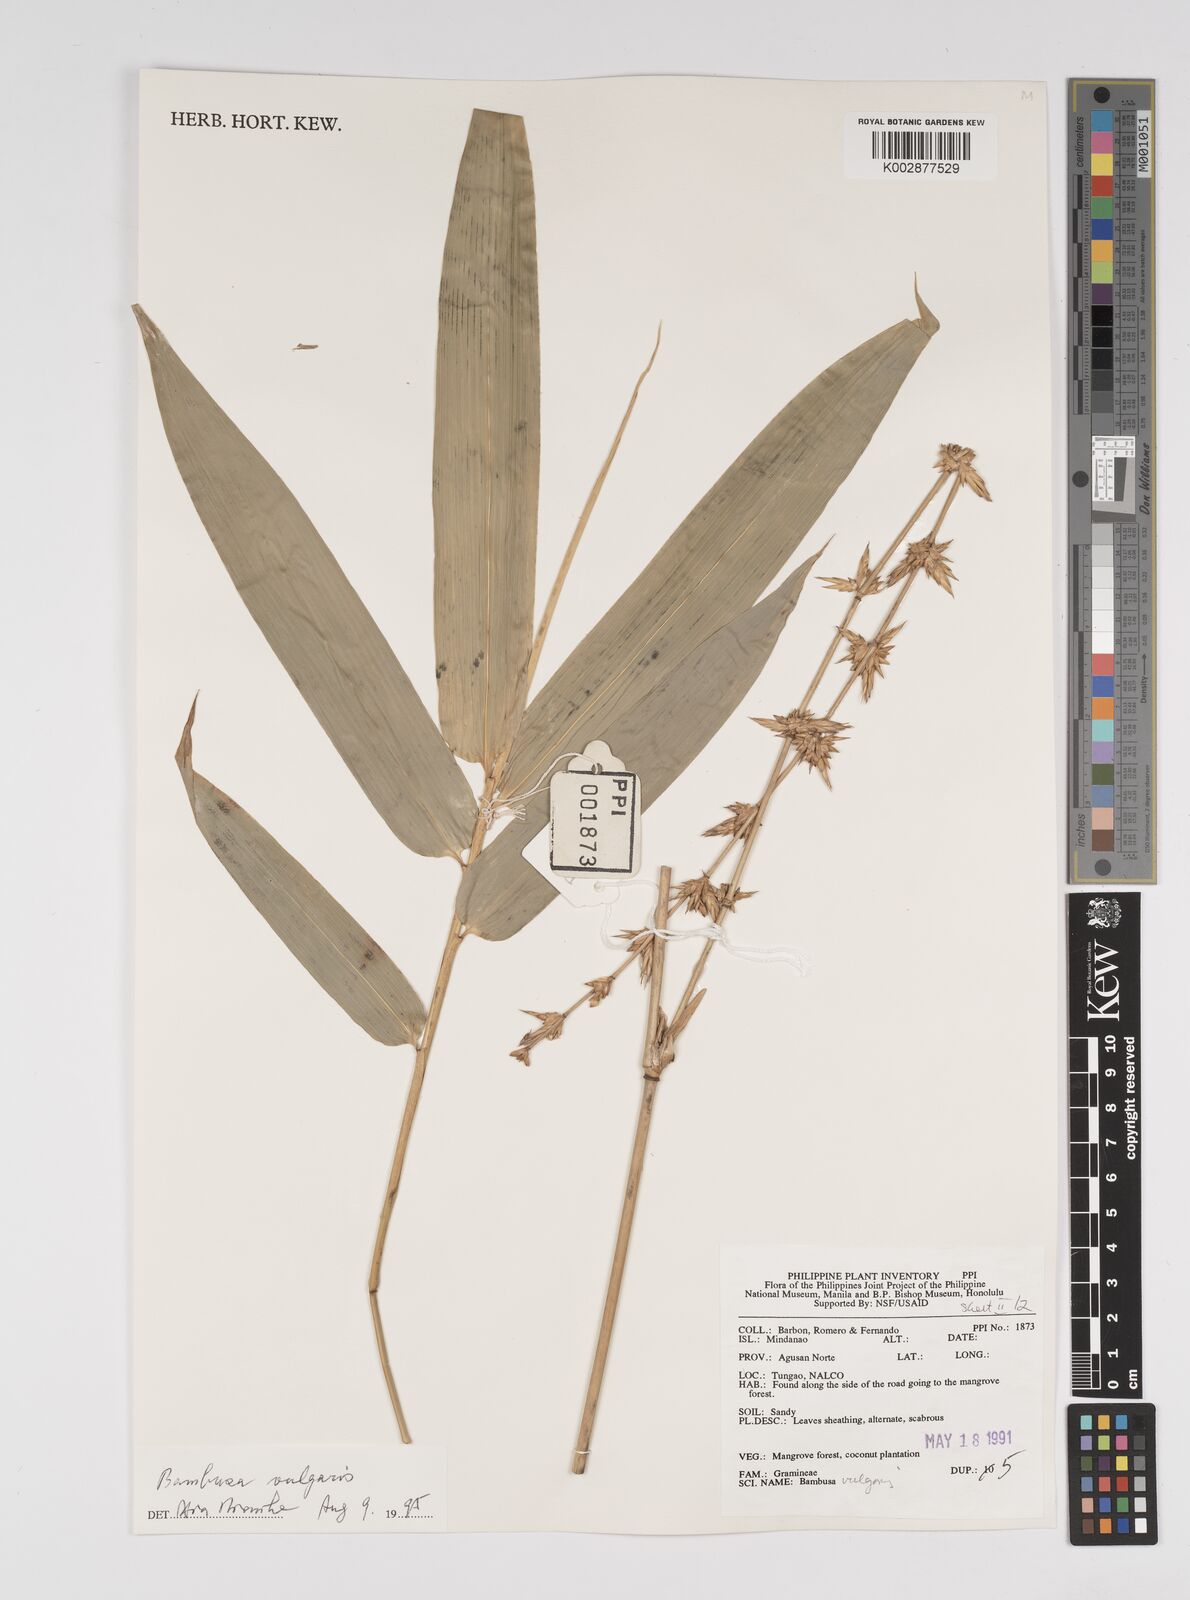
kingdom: Plantae
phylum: Tracheophyta
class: Liliopsida
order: Poales
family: Poaceae
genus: Bambusa
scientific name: Bambusa vulgaris
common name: Common bamboo
